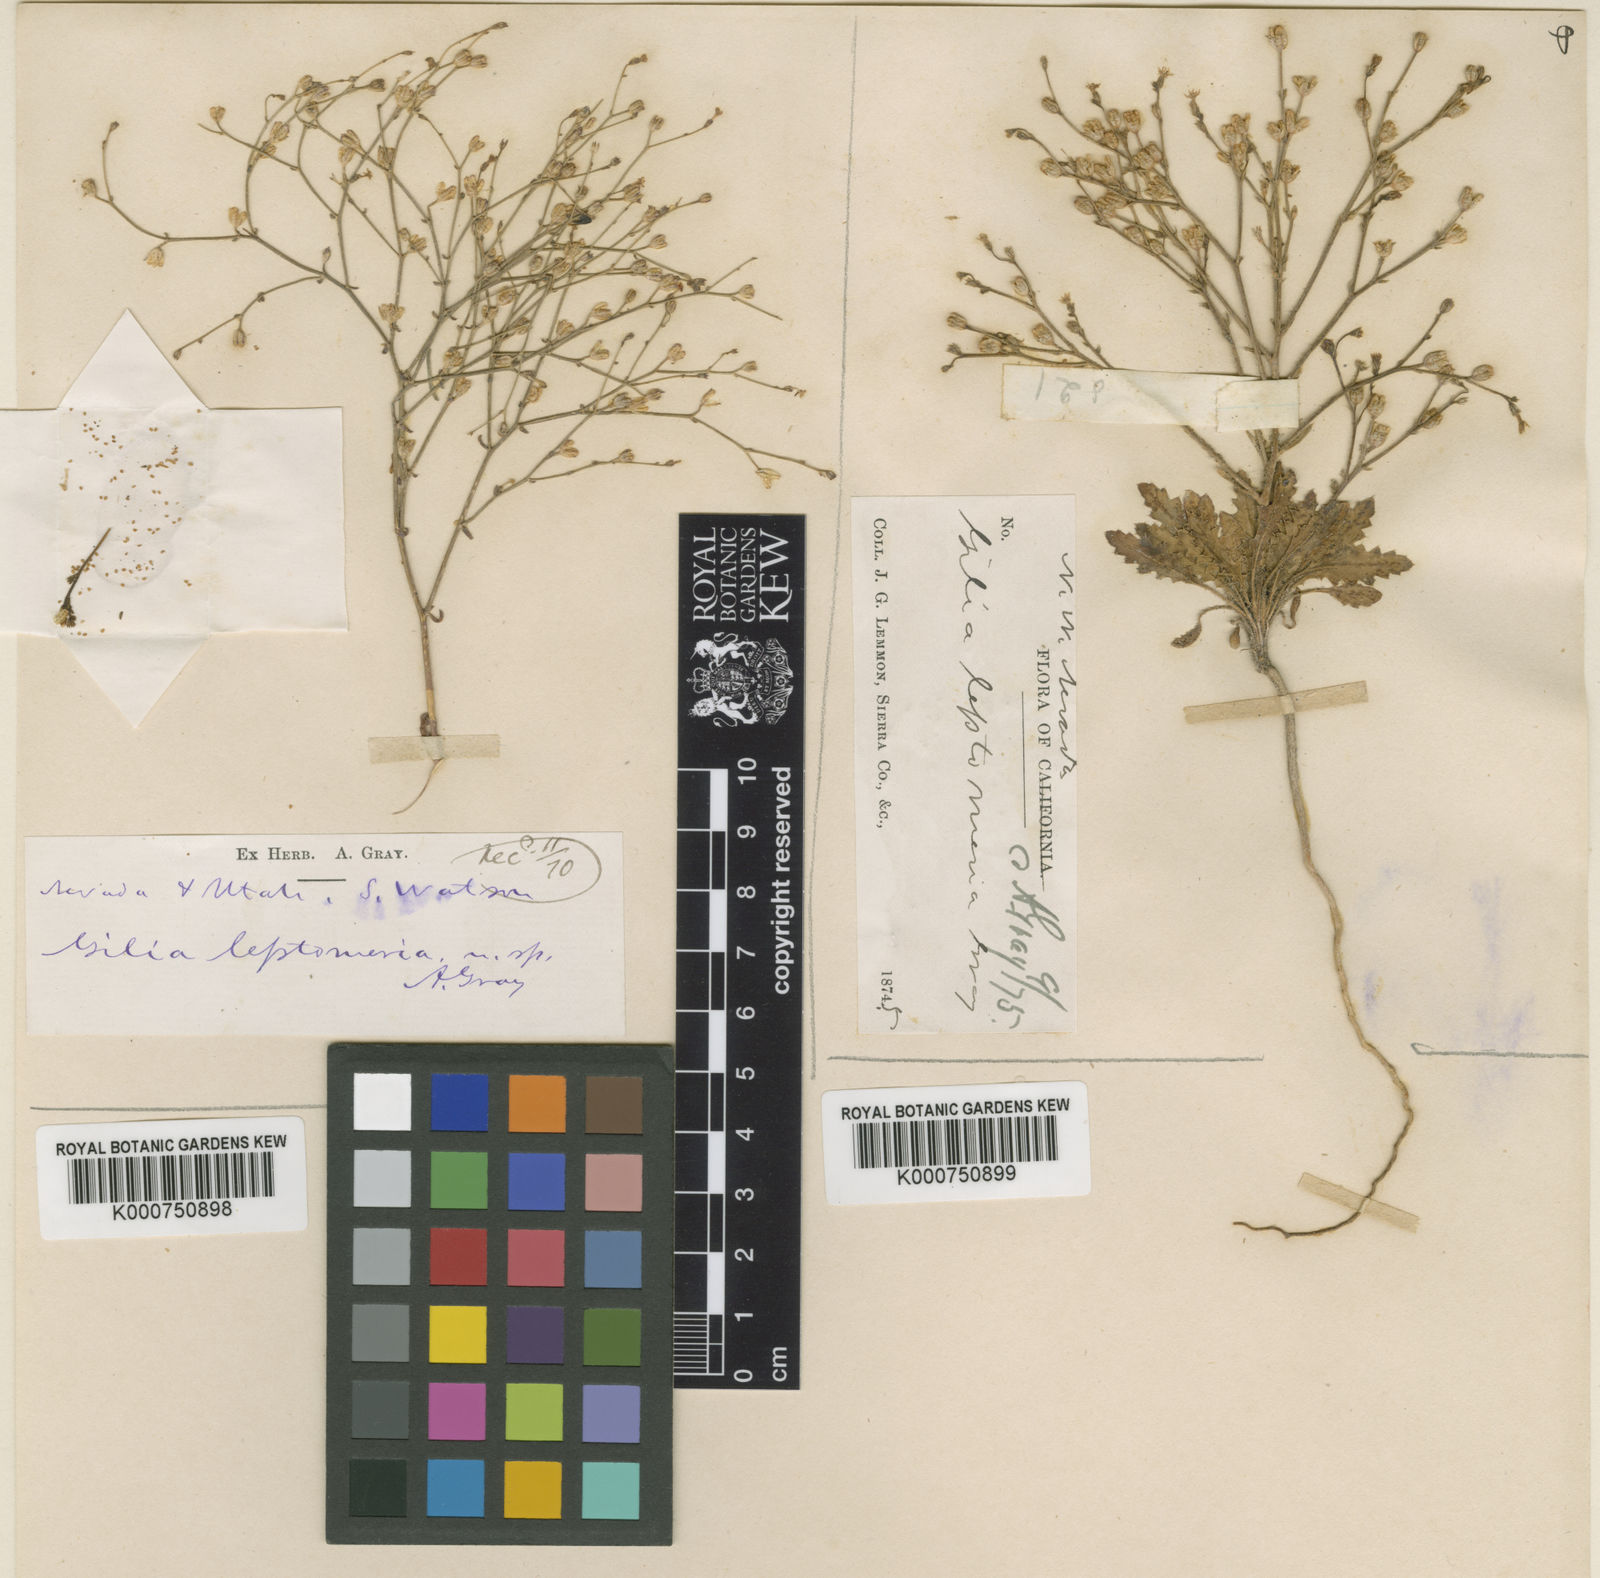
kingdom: Plantae
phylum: Tracheophyta
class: Magnoliopsida
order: Ericales
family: Polemoniaceae
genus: Aliciella
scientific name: Aliciella leptomeria
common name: Sand gilia
